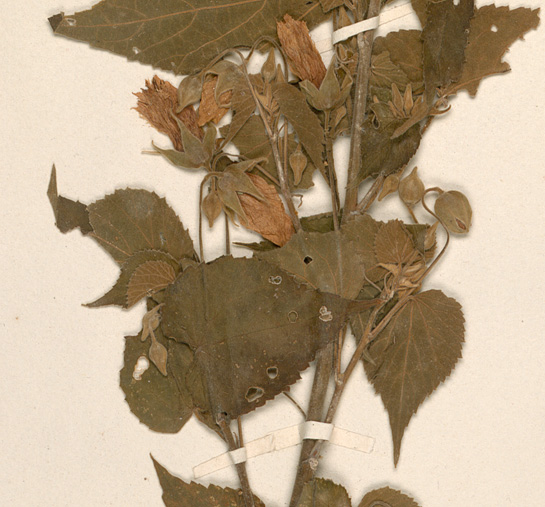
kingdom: Plantae
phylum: Tracheophyta
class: Magnoliopsida
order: Malvales
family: Malvaceae
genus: Abutilon
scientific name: Abutilon mauritianum
